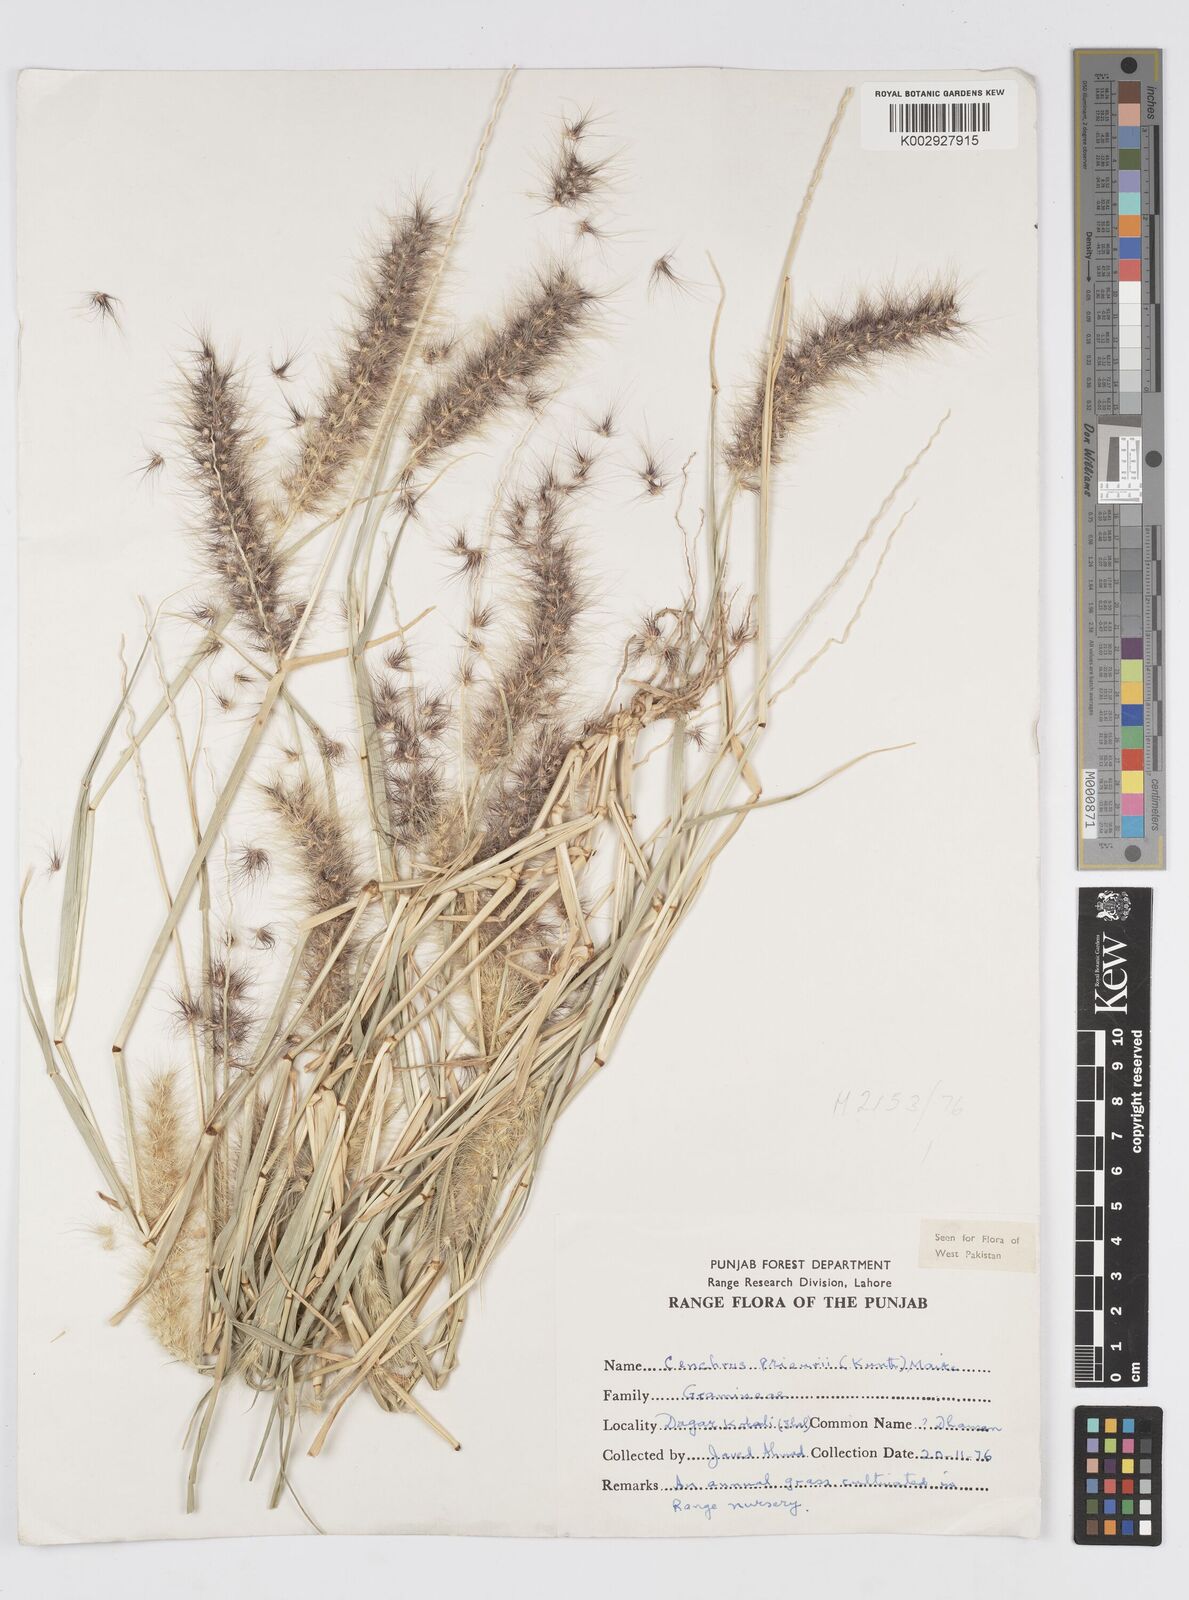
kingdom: Plantae
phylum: Tracheophyta
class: Liliopsida
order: Poales
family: Poaceae
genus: Cenchrus
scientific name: Cenchrus prieurii
